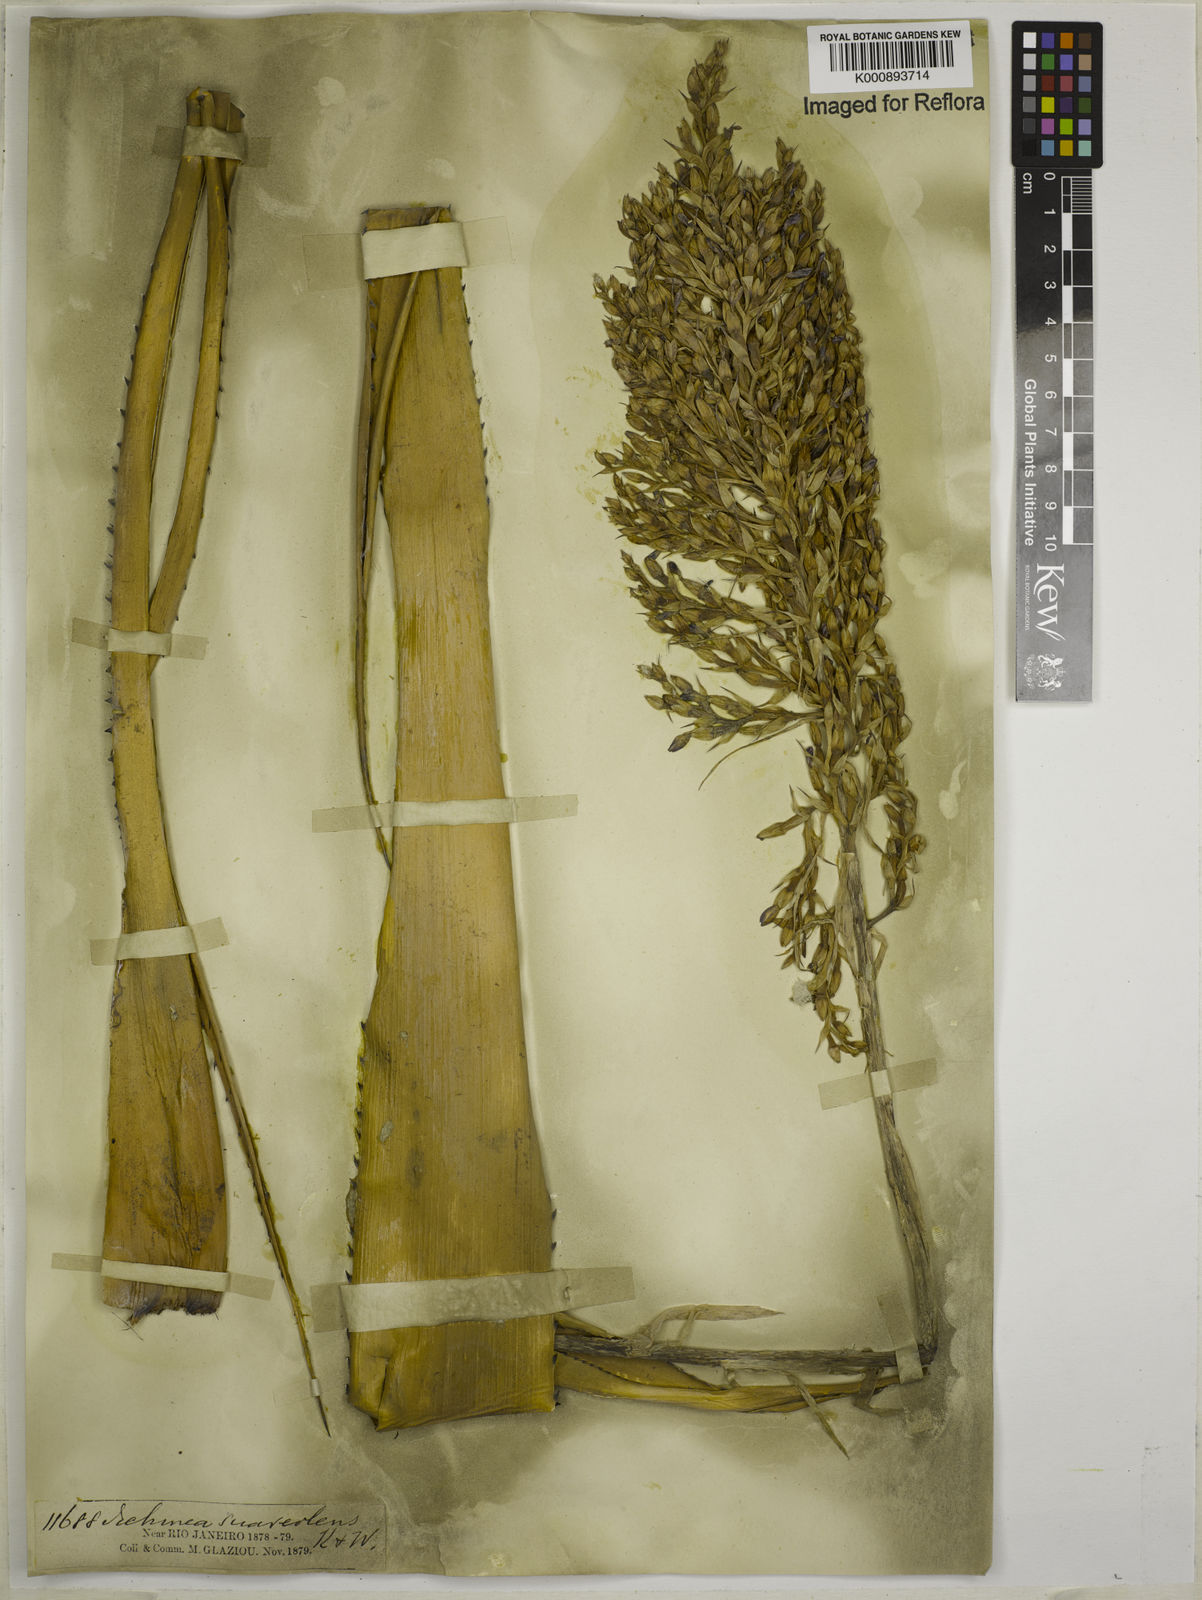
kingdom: Plantae
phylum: Tracheophyta
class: Liliopsida
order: Poales
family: Bromeliaceae
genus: Aechmea
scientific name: Aechmea
